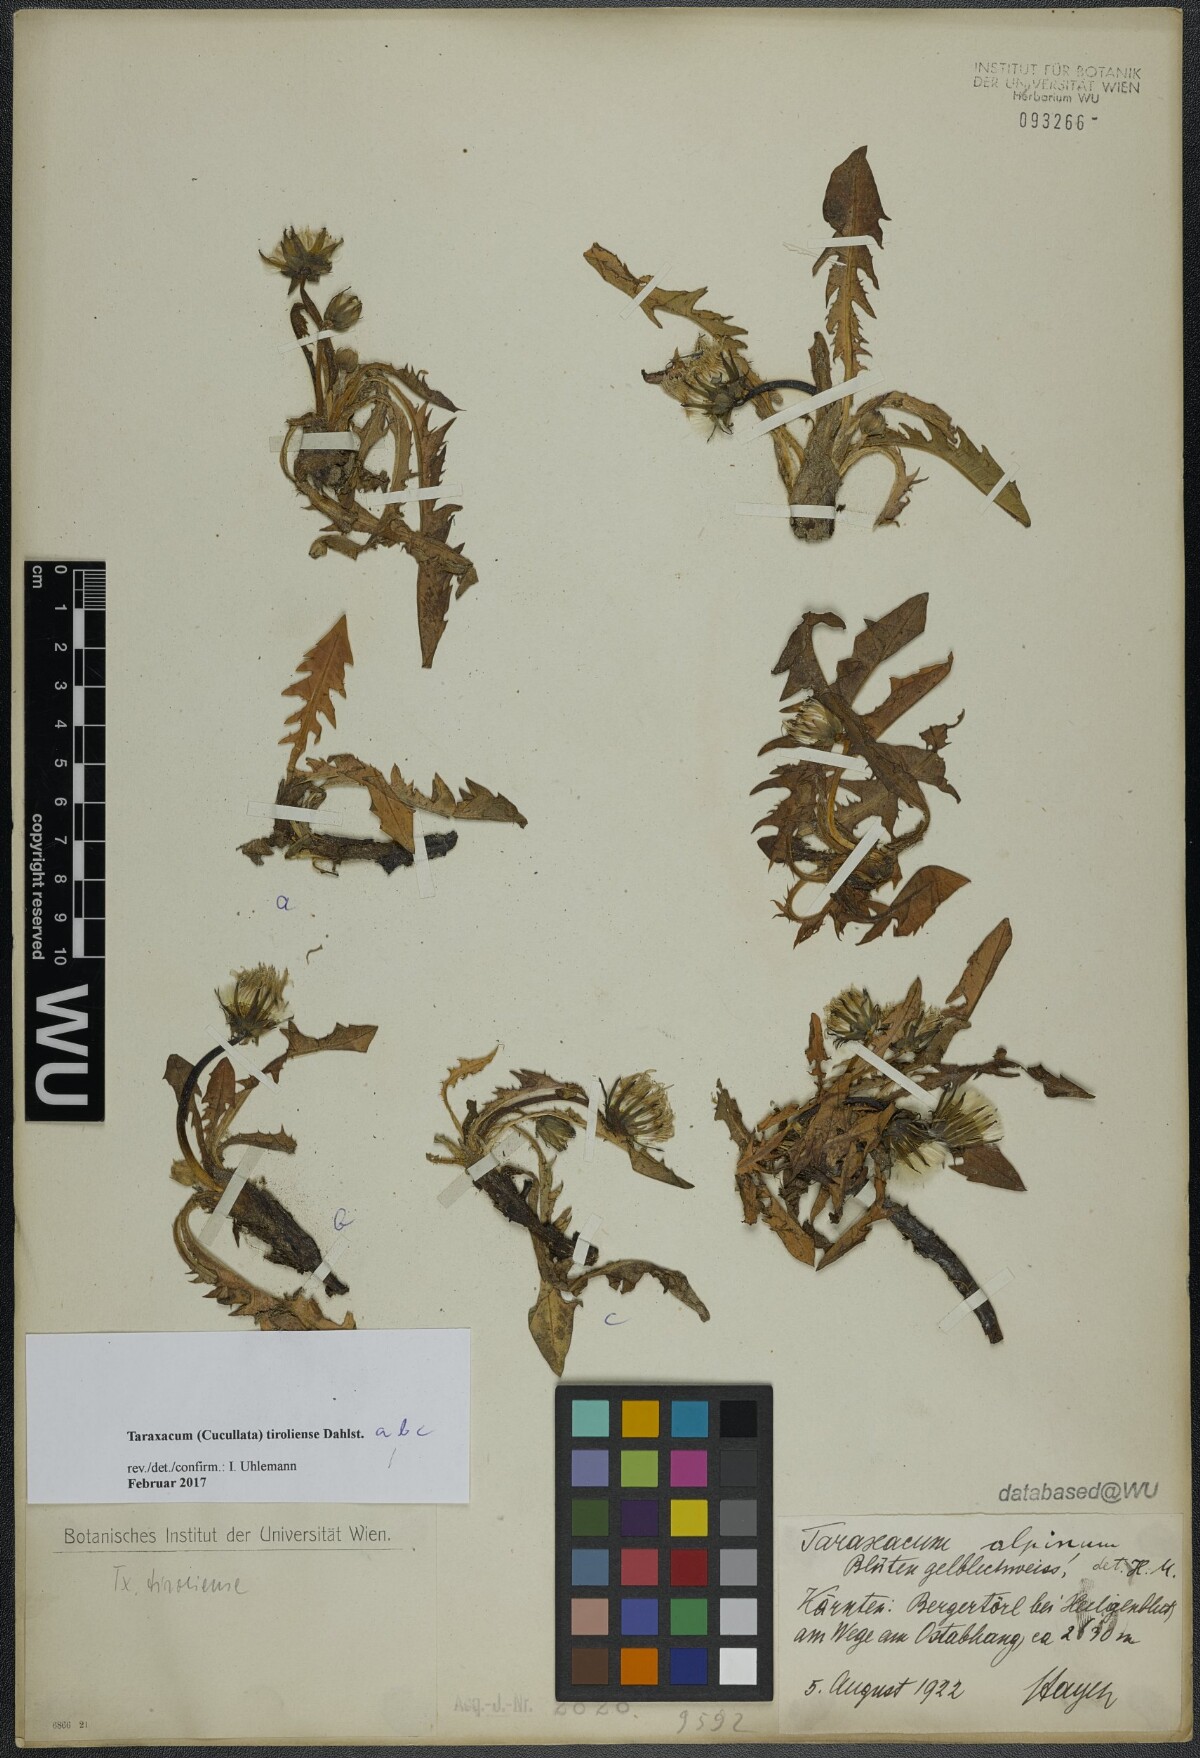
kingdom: Plantae
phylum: Tracheophyta
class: Magnoliopsida
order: Asterales
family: Asteraceae
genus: Taraxacum
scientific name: Taraxacum tiroliense
